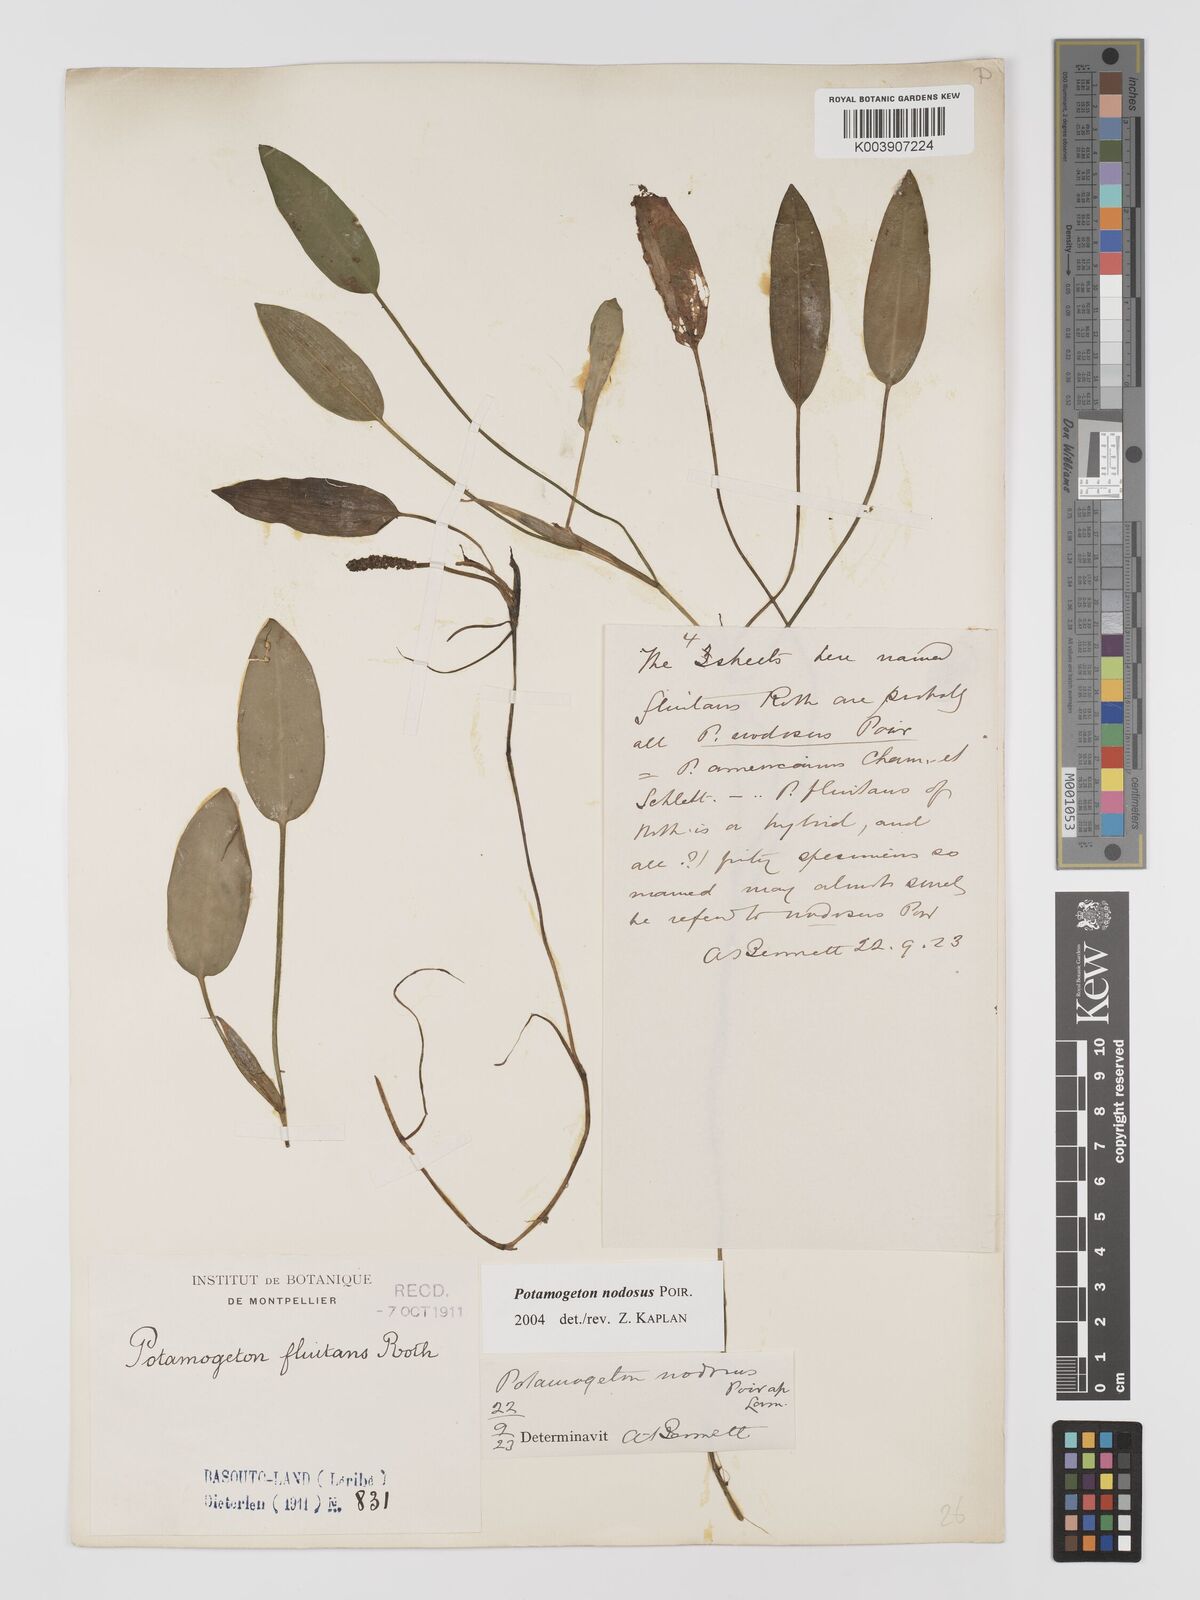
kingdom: Plantae
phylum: Tracheophyta
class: Liliopsida
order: Alismatales
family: Potamogetonaceae
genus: Potamogeton
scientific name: Potamogeton nodosus
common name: Loddon pondweed
